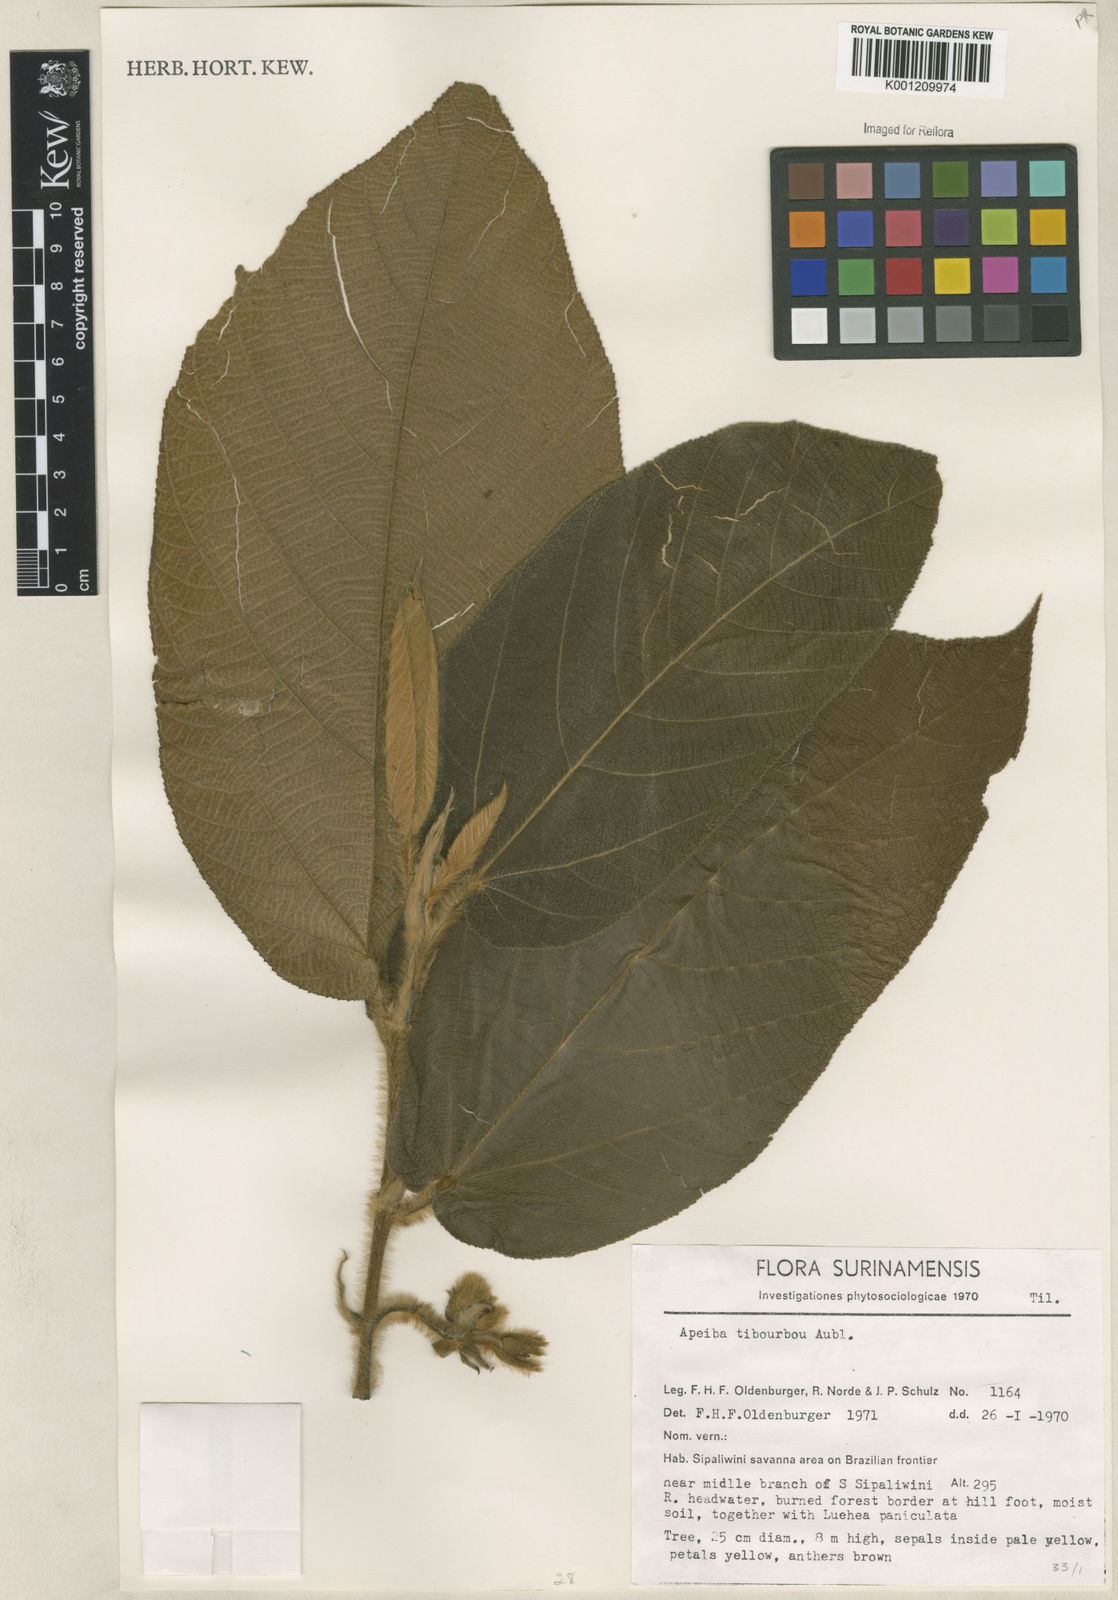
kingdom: Plantae
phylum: Tracheophyta
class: Magnoliopsida
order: Malvales
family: Malvaceae
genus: Apeiba
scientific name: Apeiba tibourbou
